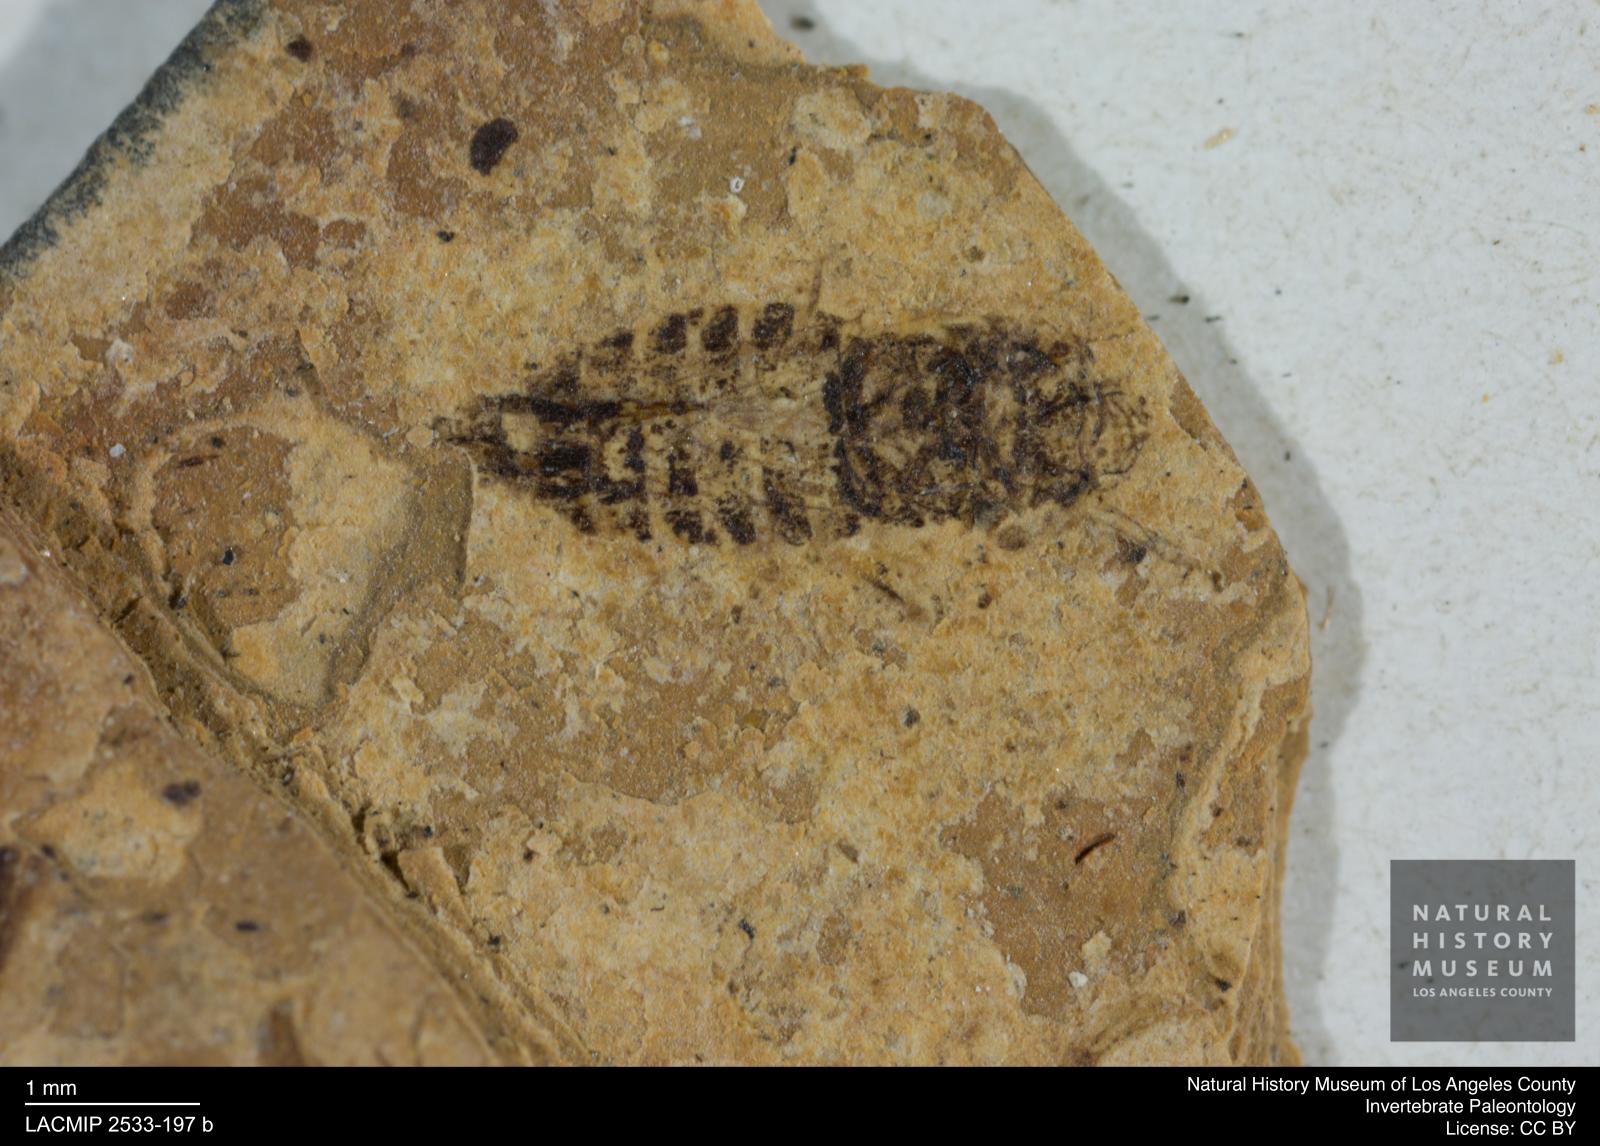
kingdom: Animalia
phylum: Arthropoda
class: Insecta
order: Hemiptera
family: Cicadellidae
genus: Thamnotettix
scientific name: Thamnotettix gracilentus
